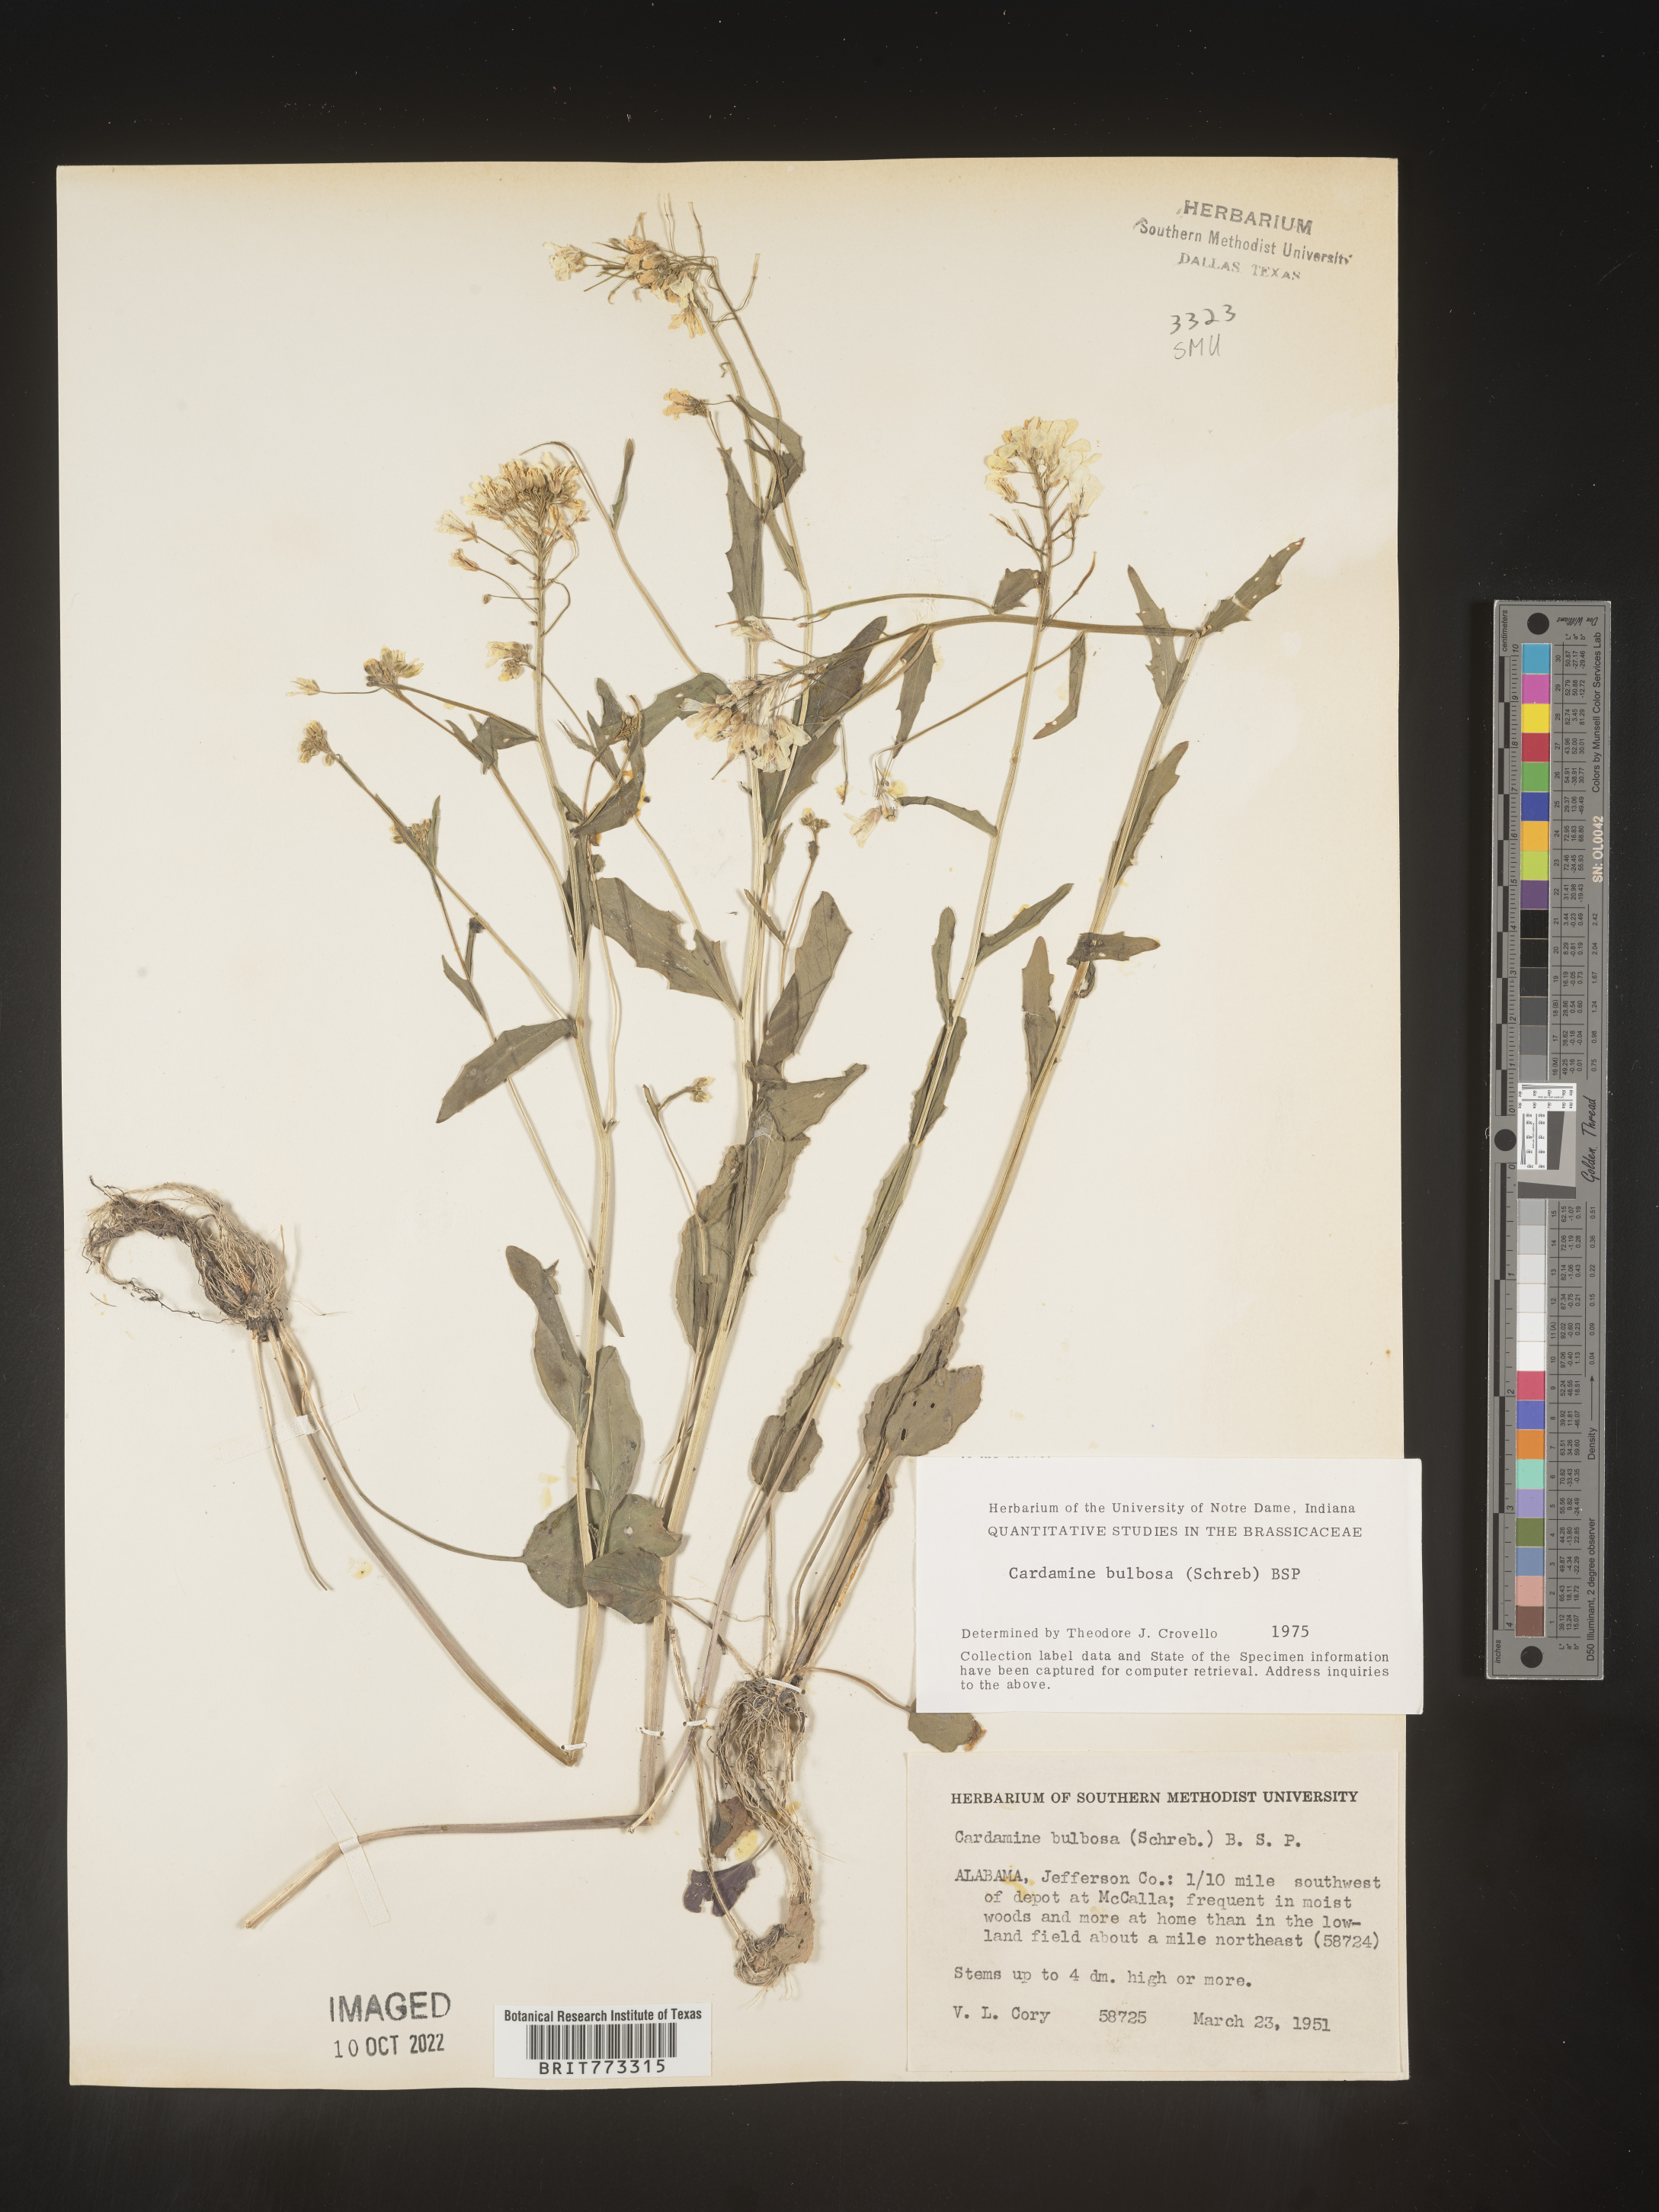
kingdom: Plantae
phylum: Tracheophyta
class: Magnoliopsida
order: Brassicales
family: Brassicaceae
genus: Cardamine
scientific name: Cardamine bulbosa
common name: Spring cress
